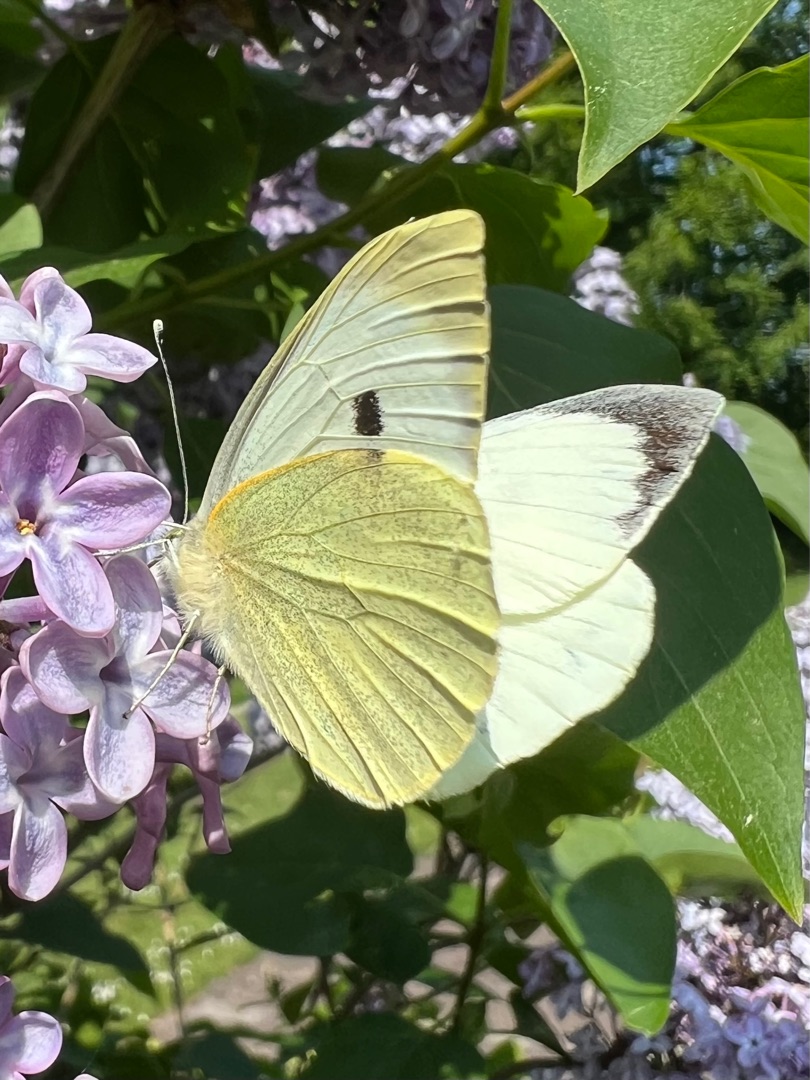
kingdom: Animalia
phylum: Arthropoda
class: Insecta
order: Lepidoptera
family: Pieridae
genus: Pieris
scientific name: Pieris brassicae
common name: Stor kålsommerfugl
